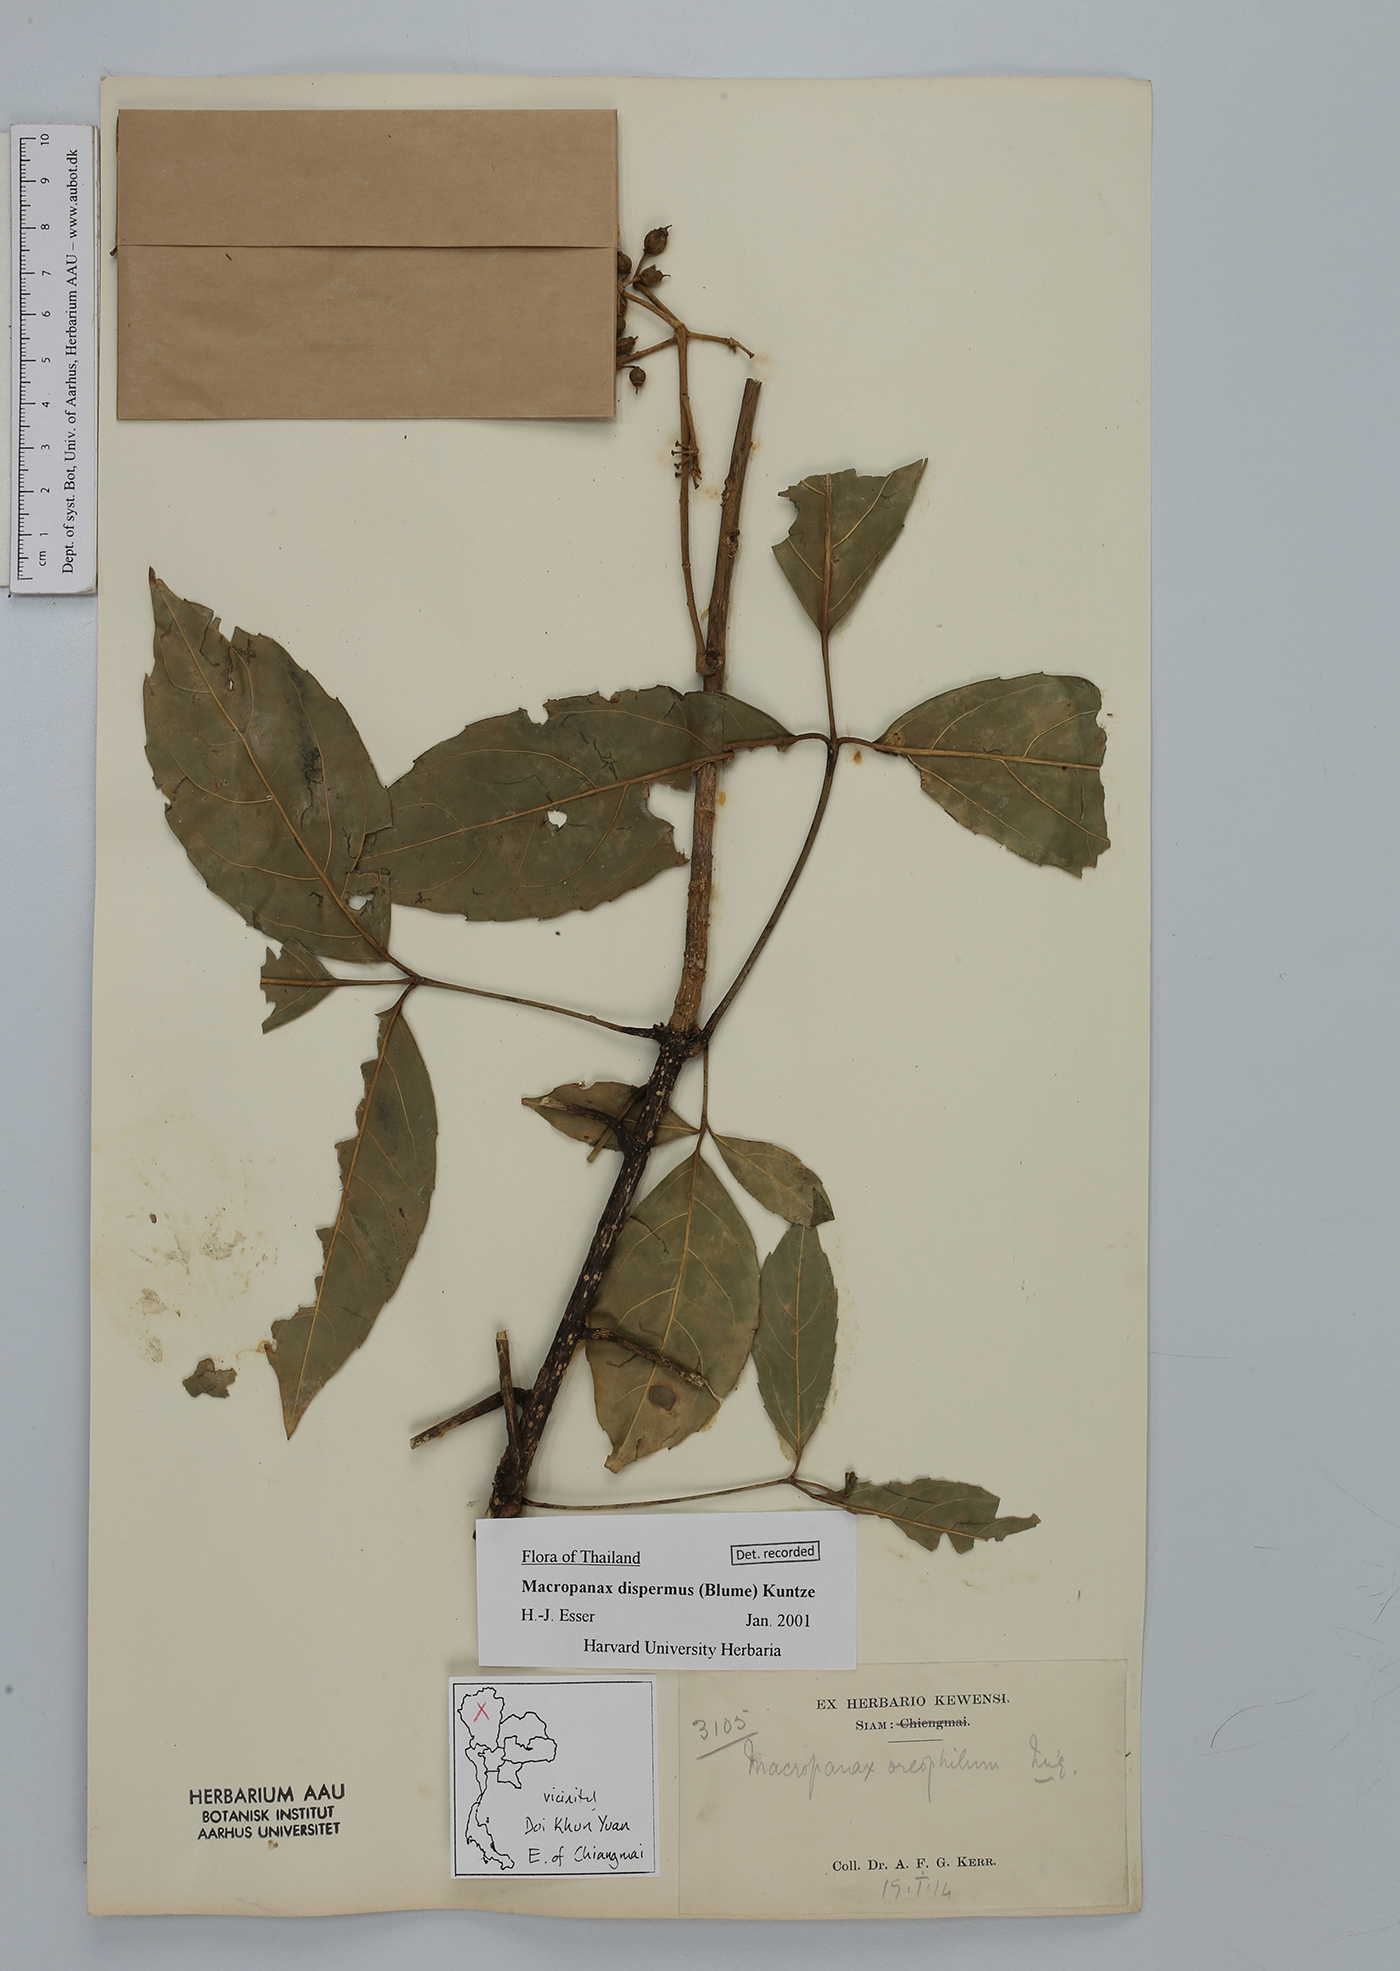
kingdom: Plantae
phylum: Tracheophyta
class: Magnoliopsida
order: Apiales
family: Araliaceae
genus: Macropanax
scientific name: Macropanax dispermus
